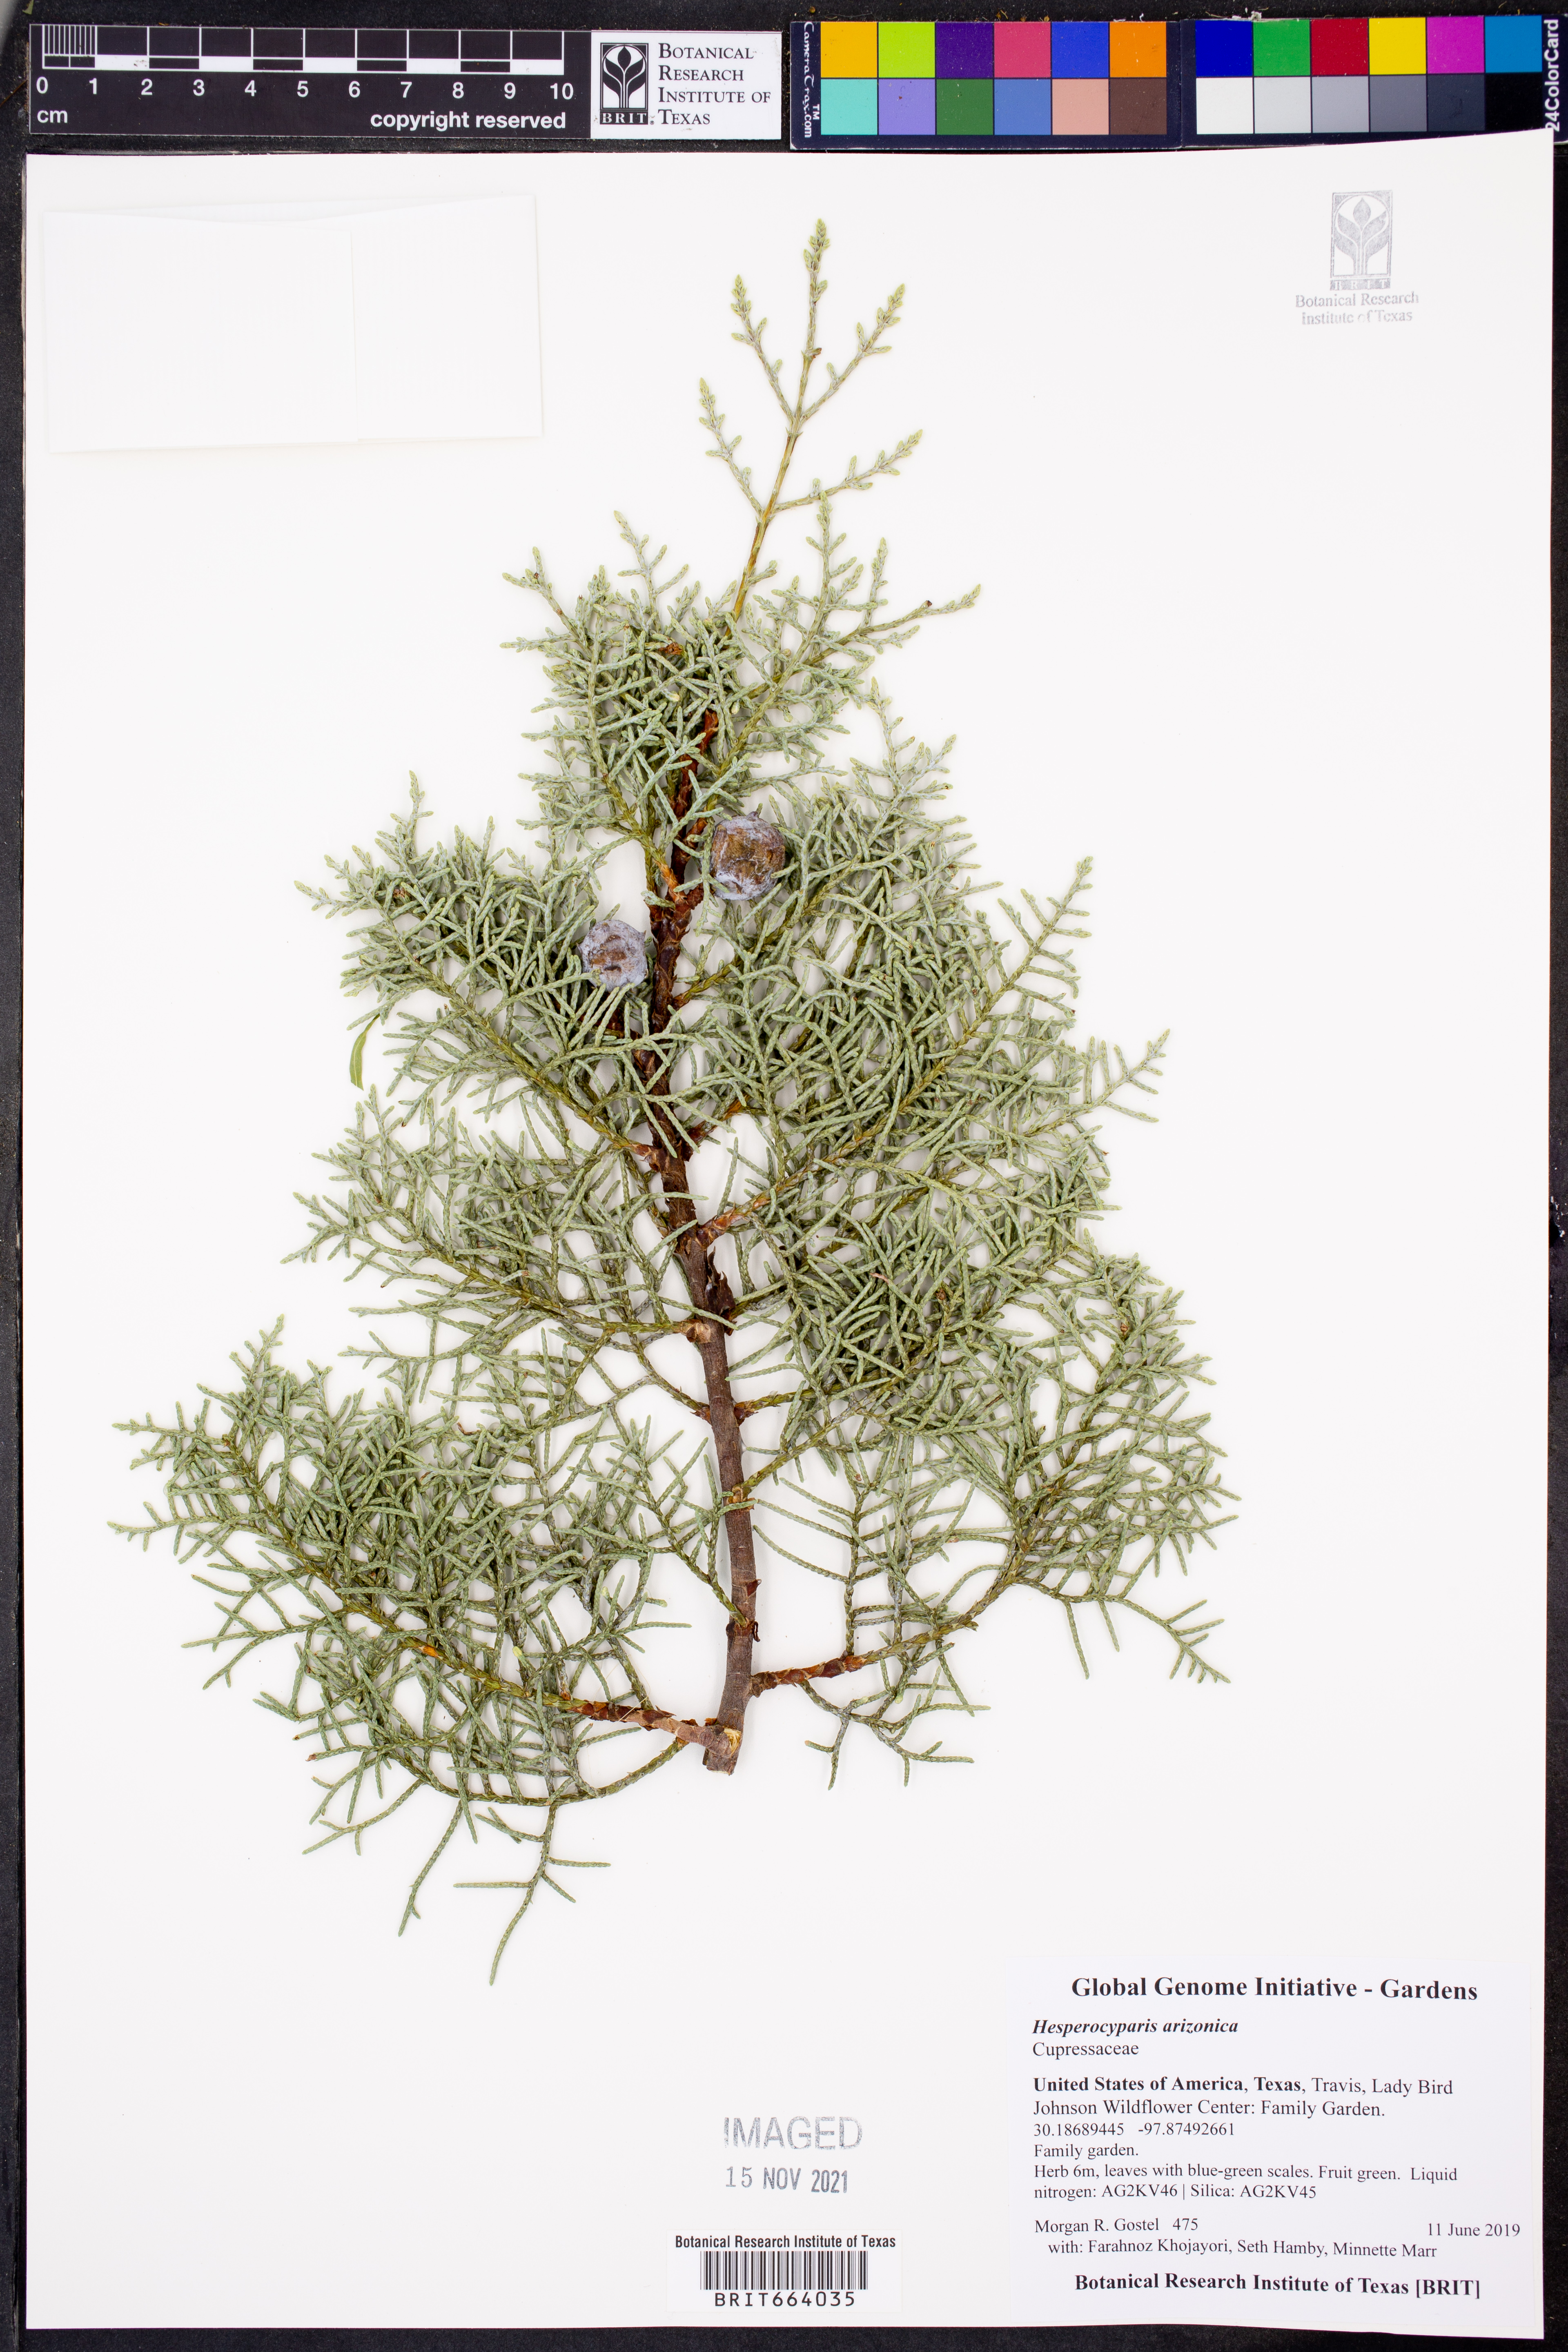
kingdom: Plantae
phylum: Tracheophyta
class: Pinopsida
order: Pinales
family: Cupressaceae
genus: Cupressus
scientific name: Cupressus arizonica
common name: Arizona cypress
